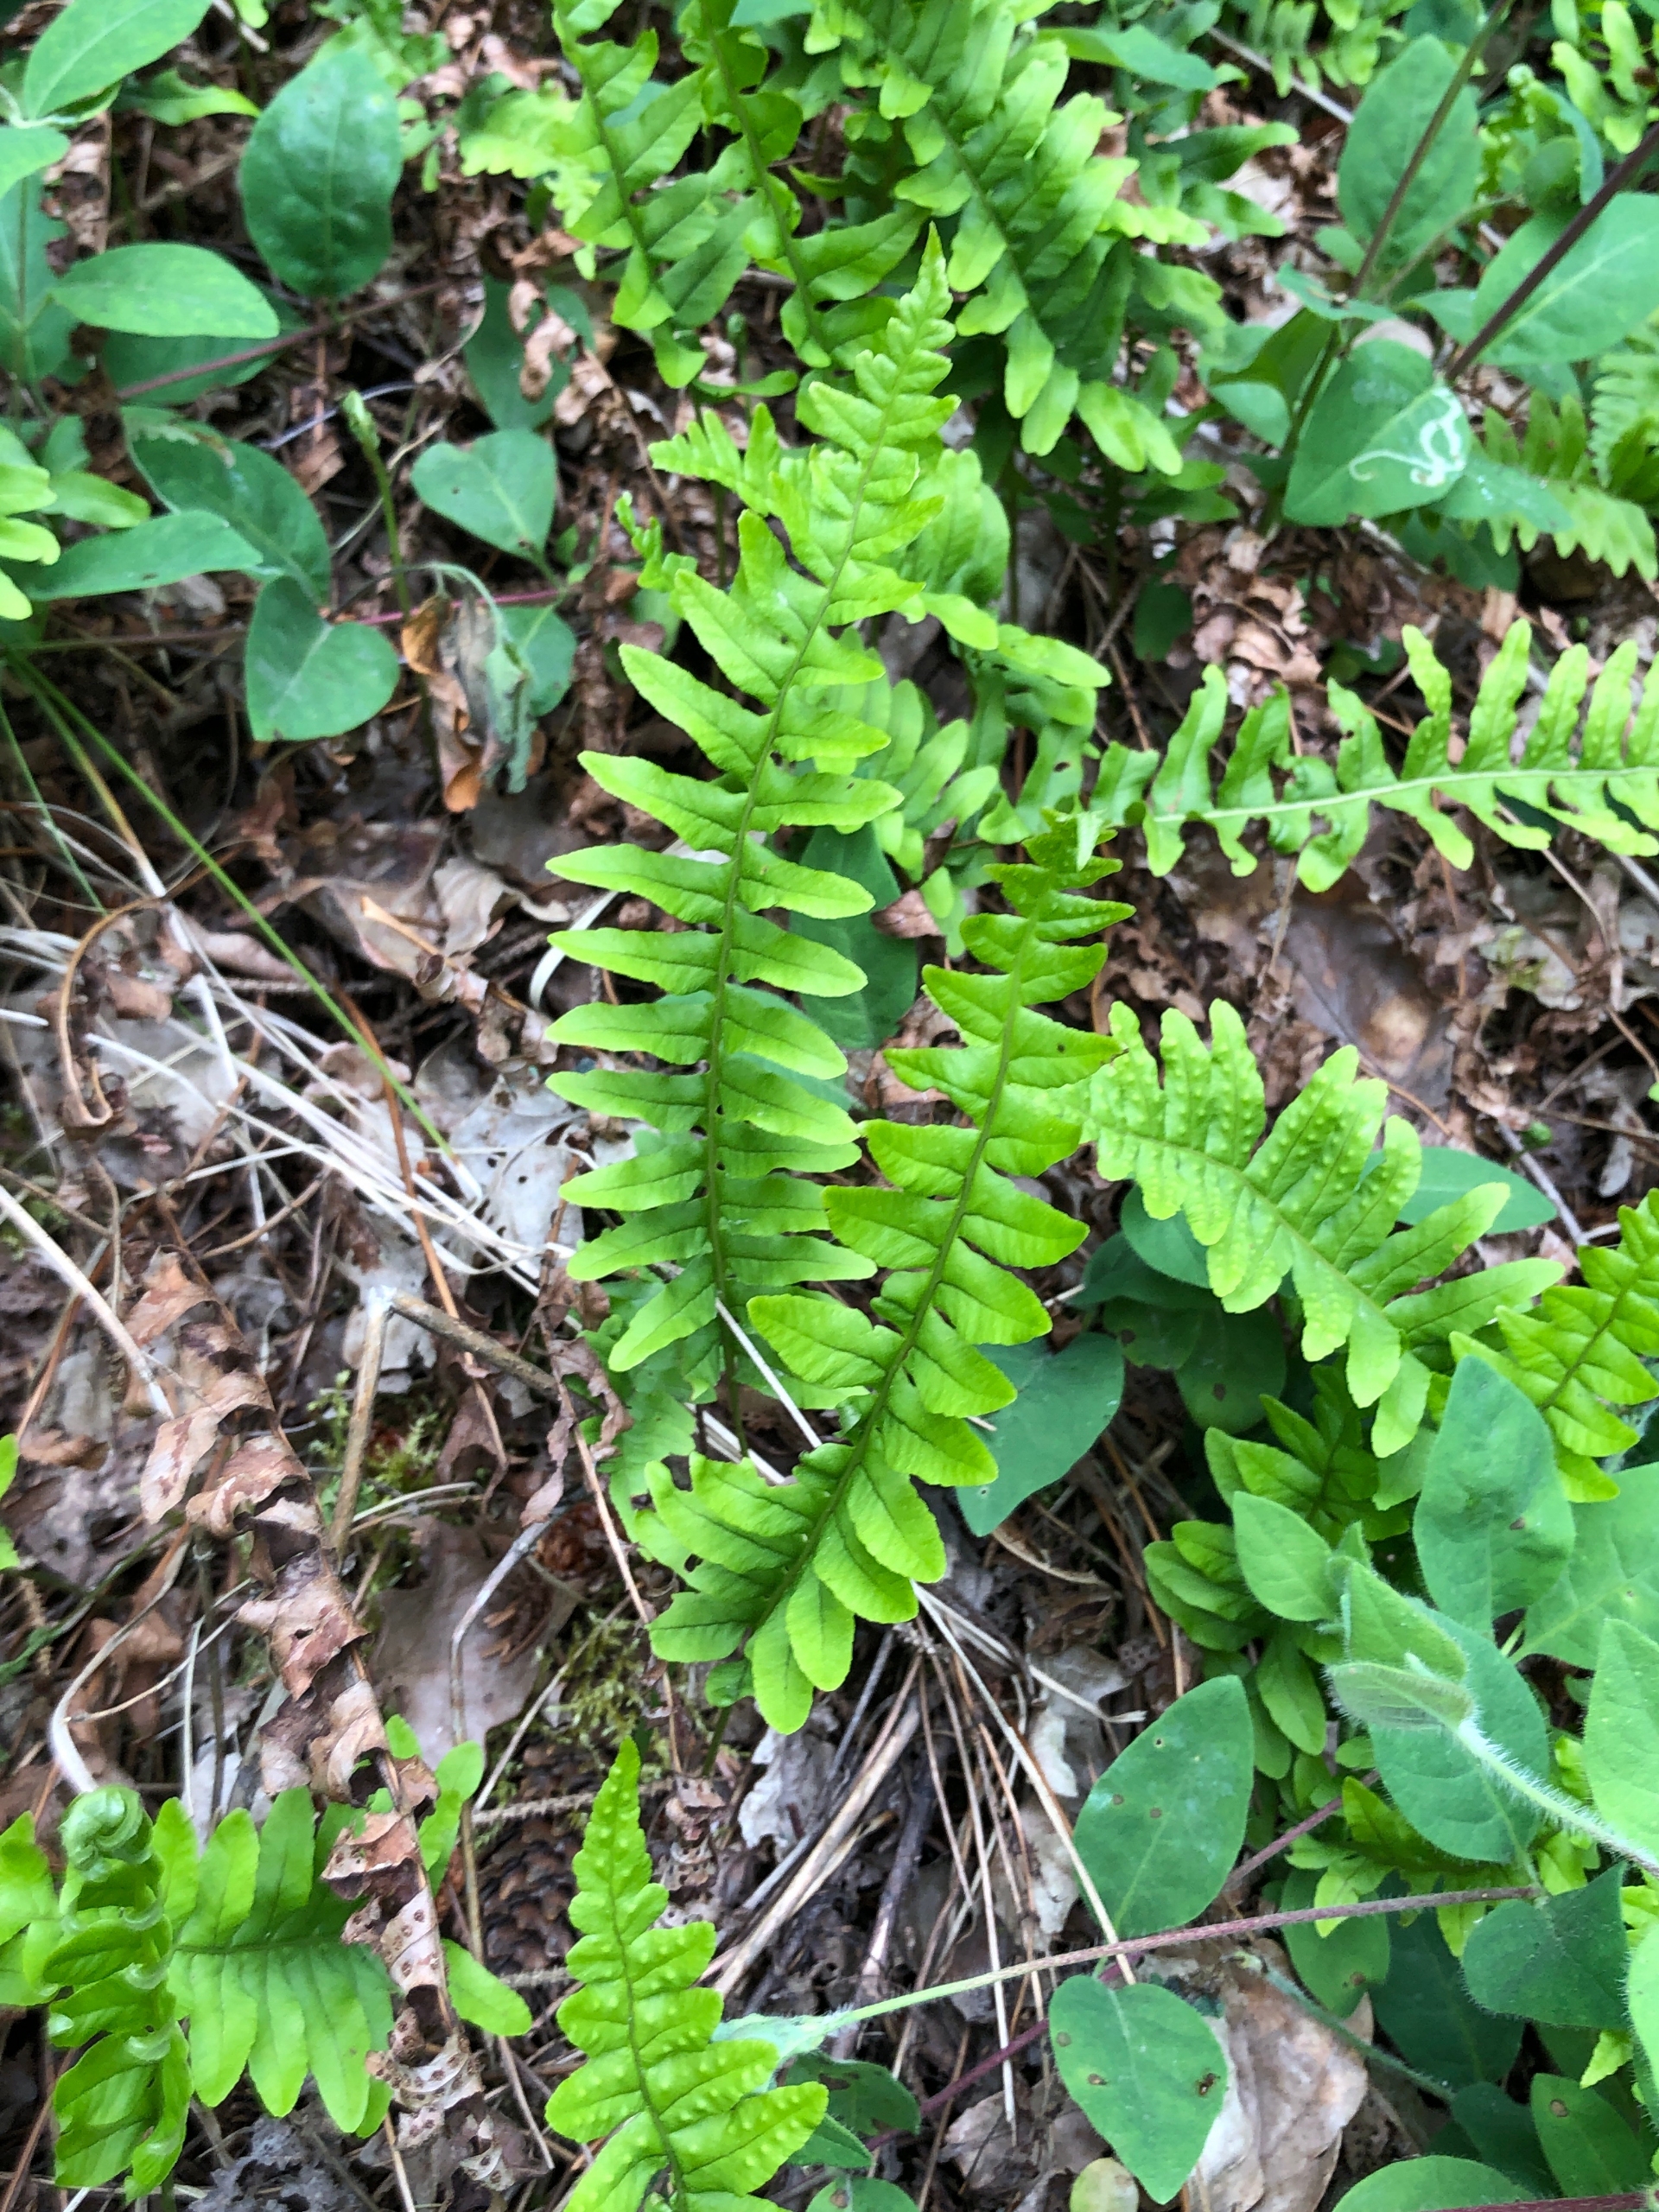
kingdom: Plantae
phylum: Tracheophyta
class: Polypodiopsida
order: Polypodiales
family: Polypodiaceae
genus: Polypodium
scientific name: Polypodium vulgare
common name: Almindelig engelsød
